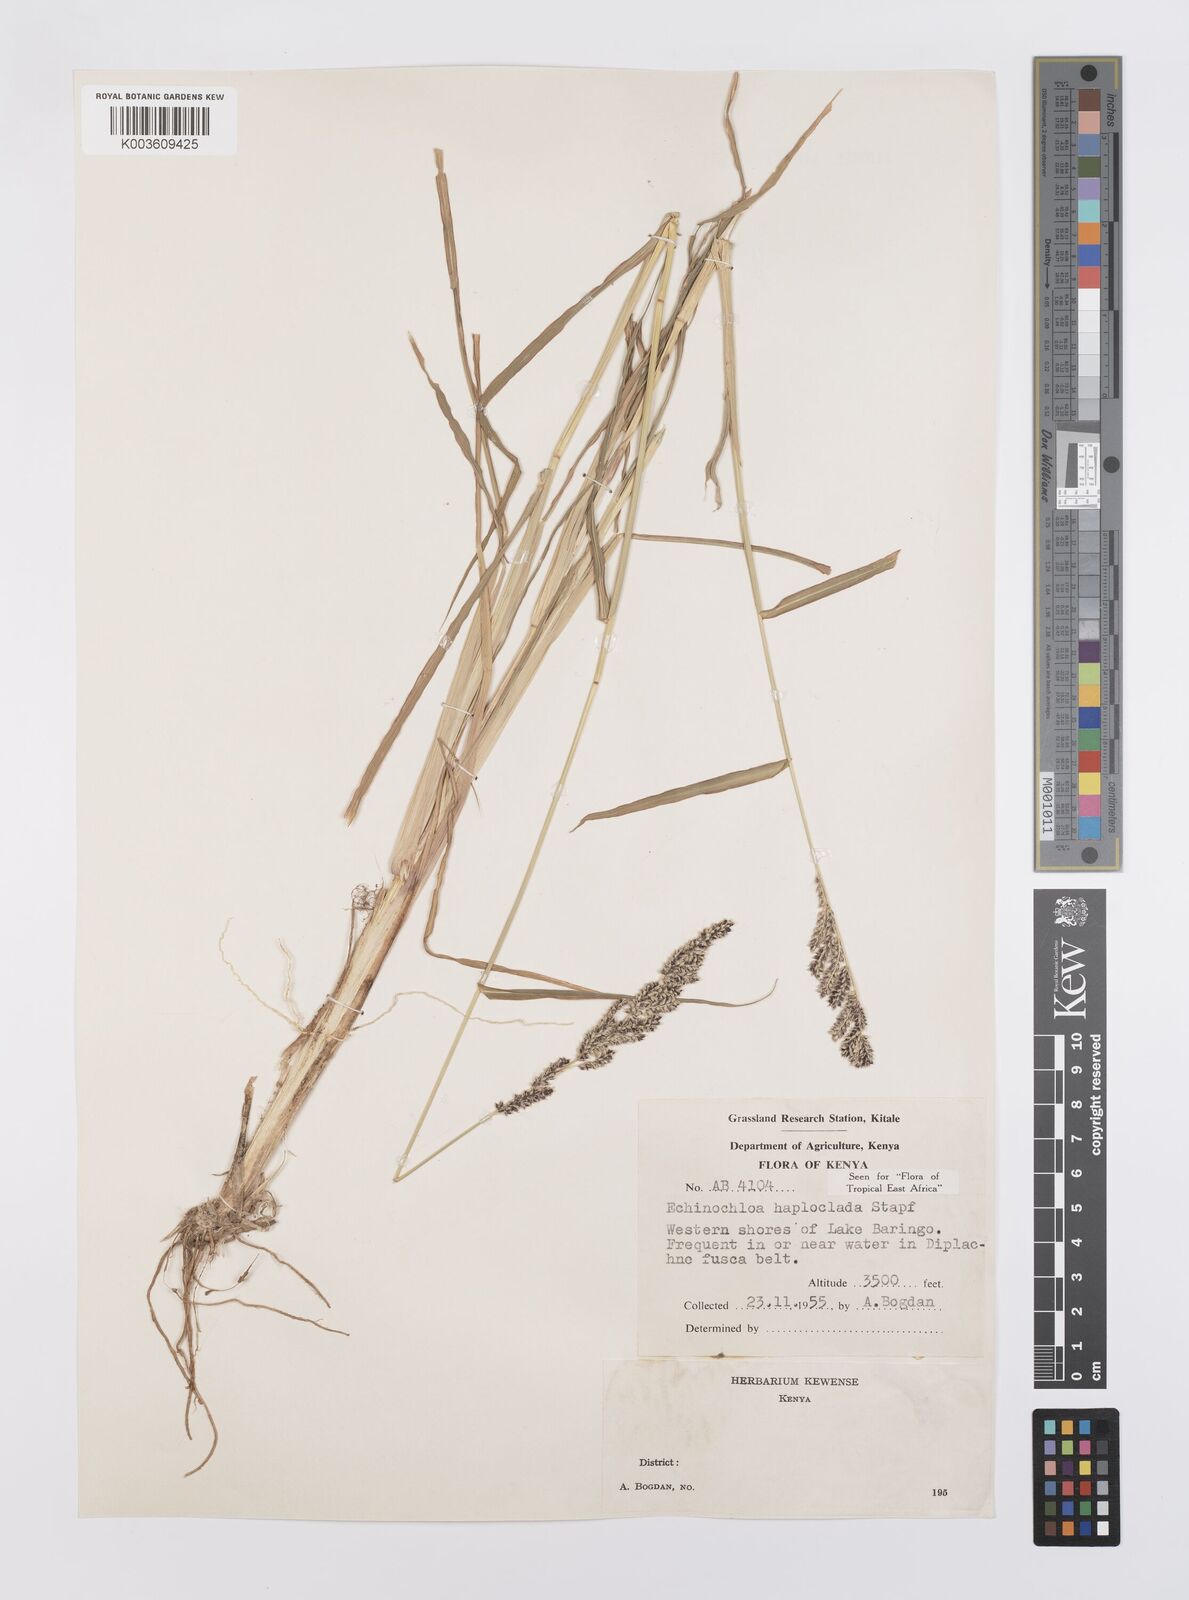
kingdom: Plantae
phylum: Tracheophyta
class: Liliopsida
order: Poales
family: Poaceae
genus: Echinochloa
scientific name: Echinochloa haploclada
